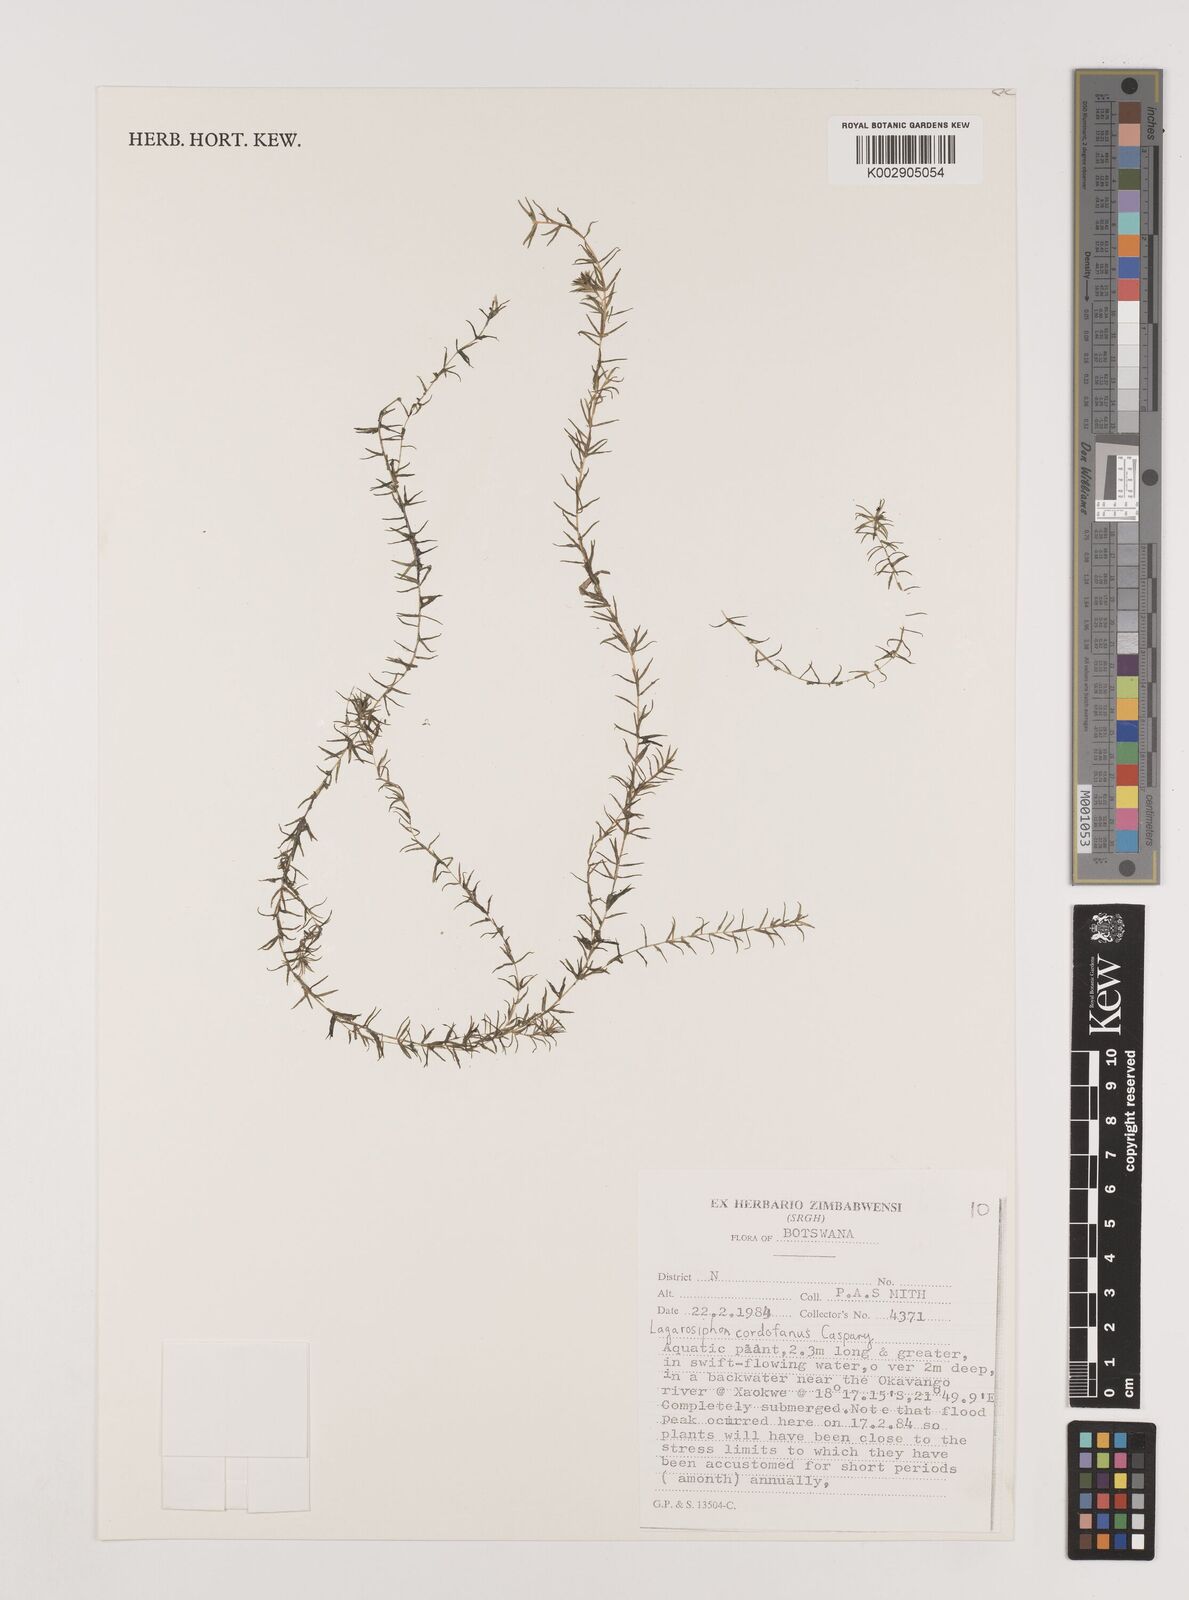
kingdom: Plantae
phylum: Tracheophyta
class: Liliopsida
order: Alismatales
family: Hydrocharitaceae
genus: Lagarosiphon
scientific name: Lagarosiphon cordofanus
